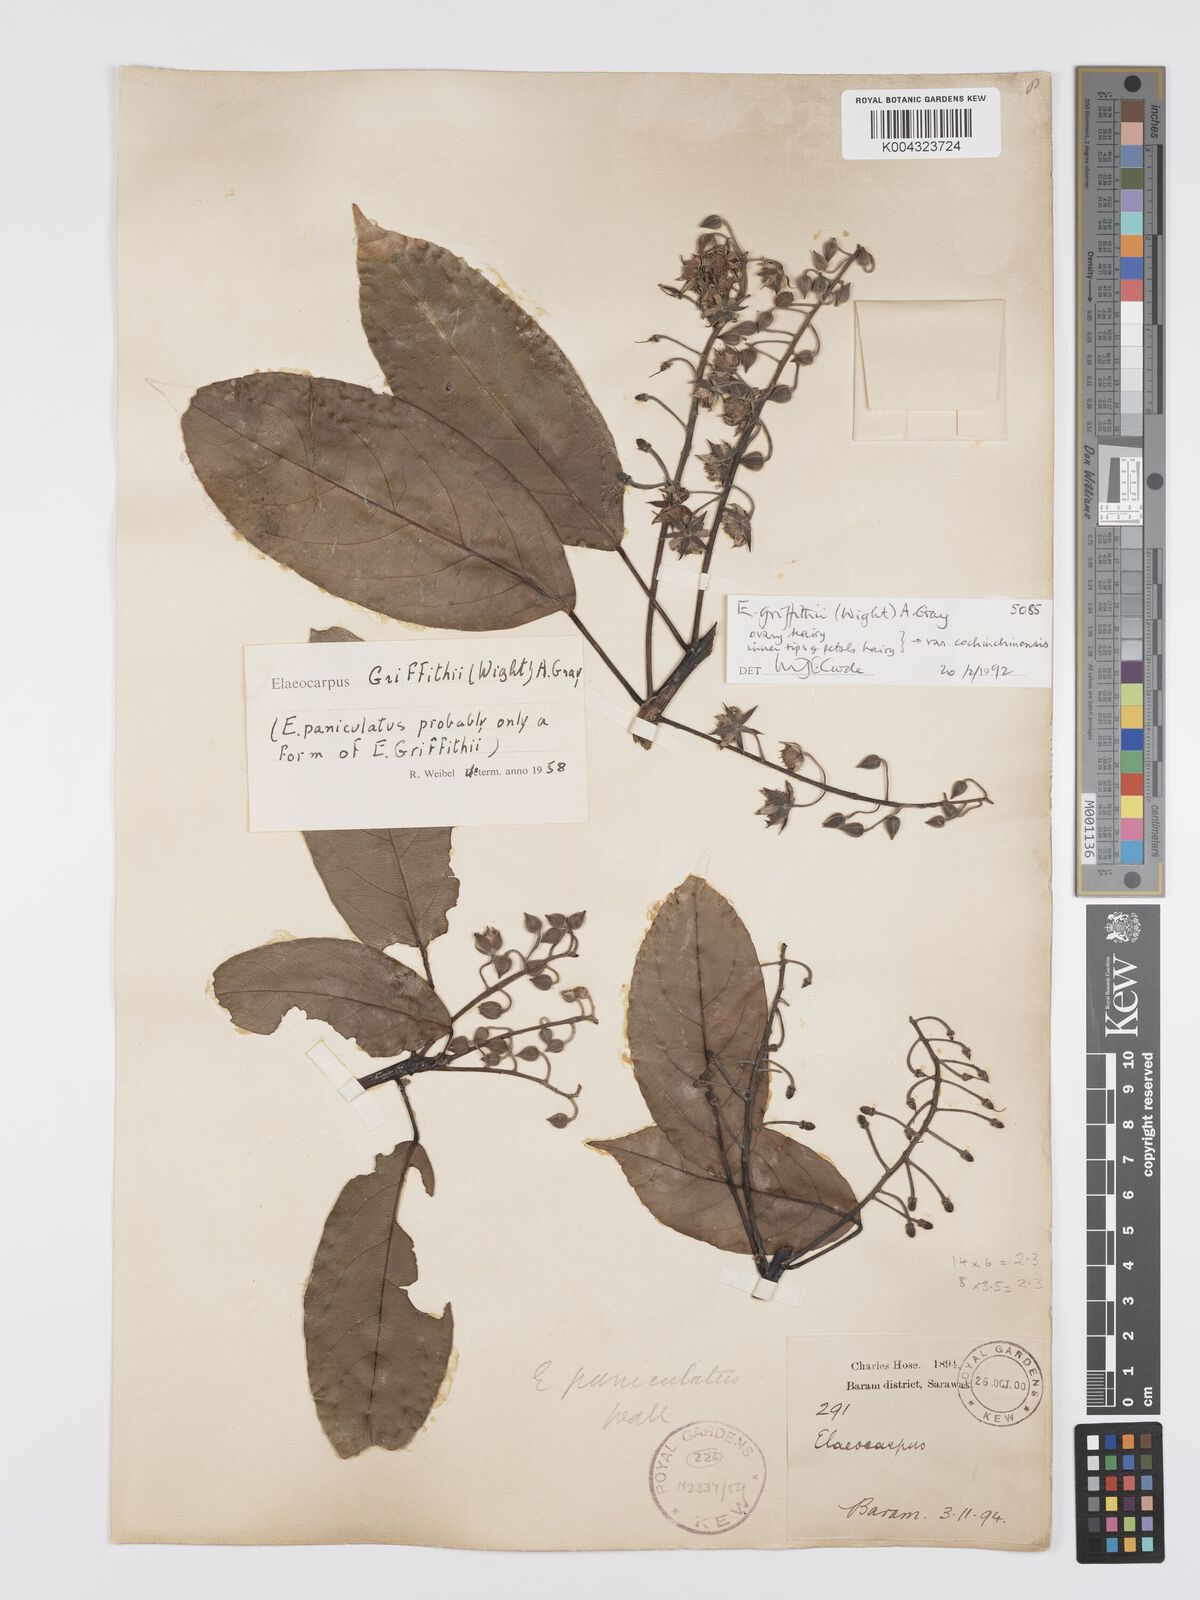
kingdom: Plantae
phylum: Tracheophyta
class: Magnoliopsida
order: Oxalidales
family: Elaeocarpaceae
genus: Elaeocarpus
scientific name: Elaeocarpus griffithii
